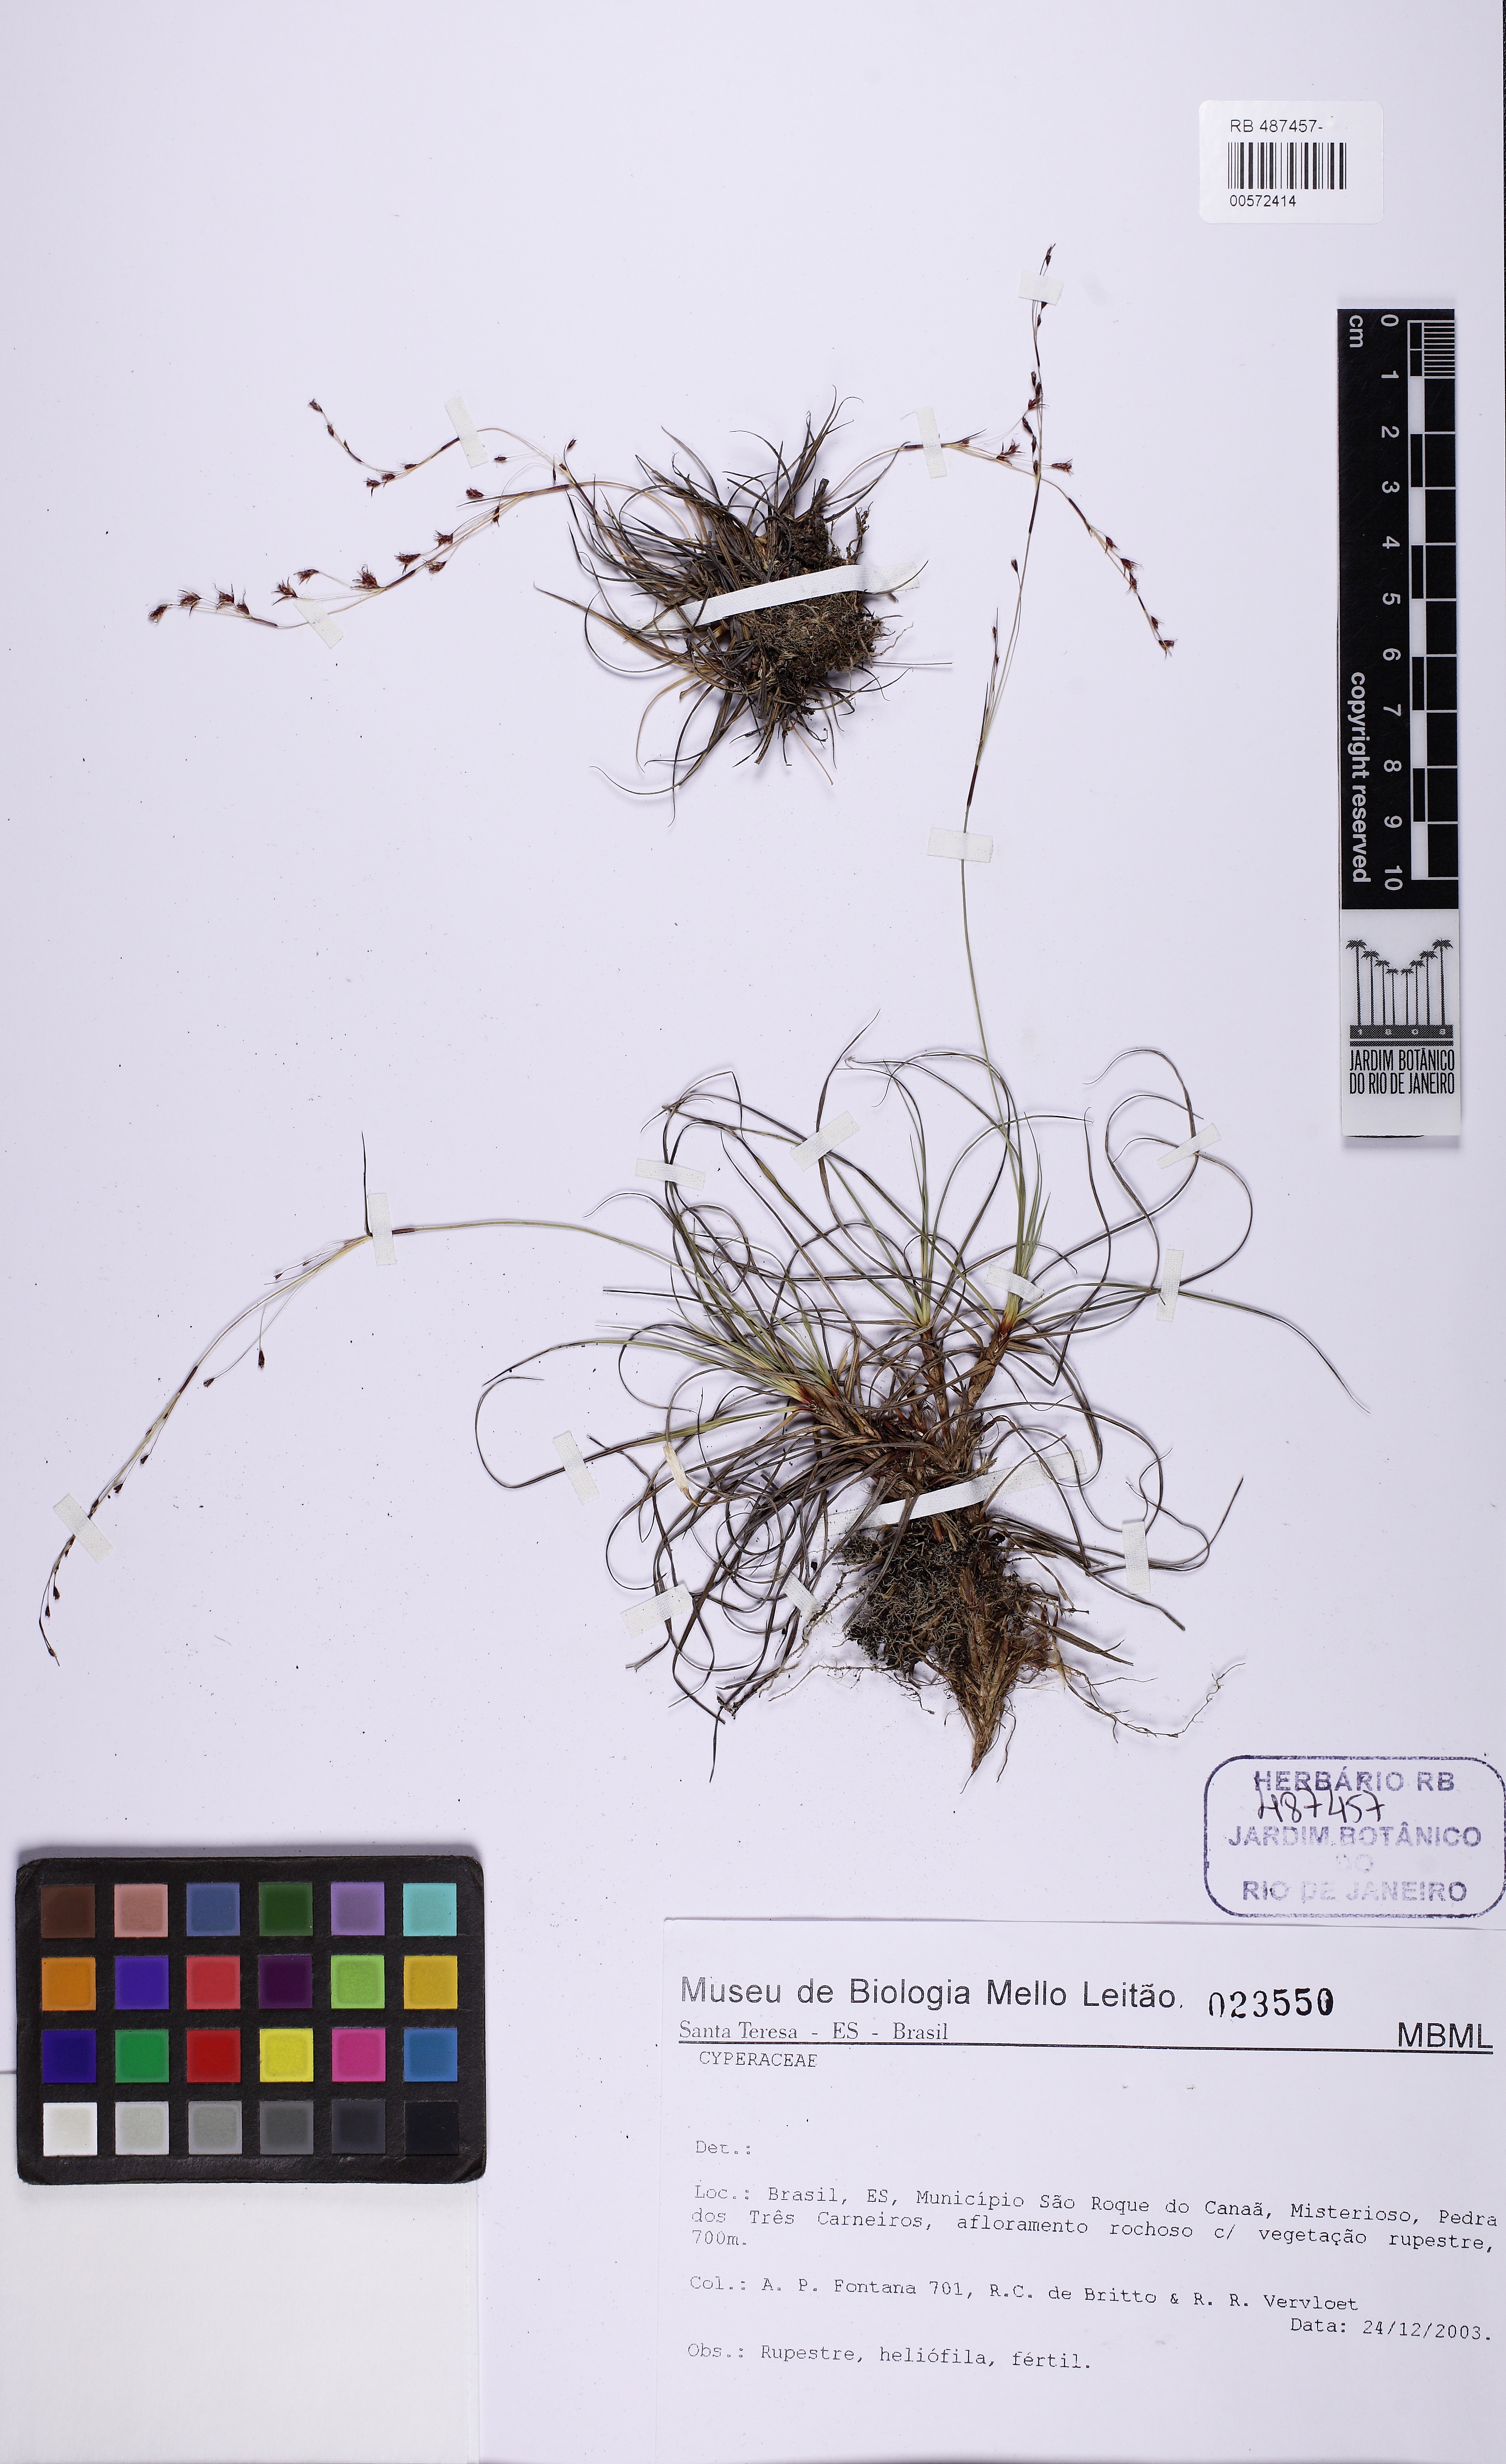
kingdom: Plantae
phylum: Tracheophyta
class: Liliopsida
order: Poales
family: Cyperaceae
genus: Lagenocarpus
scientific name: Lagenocarpus
